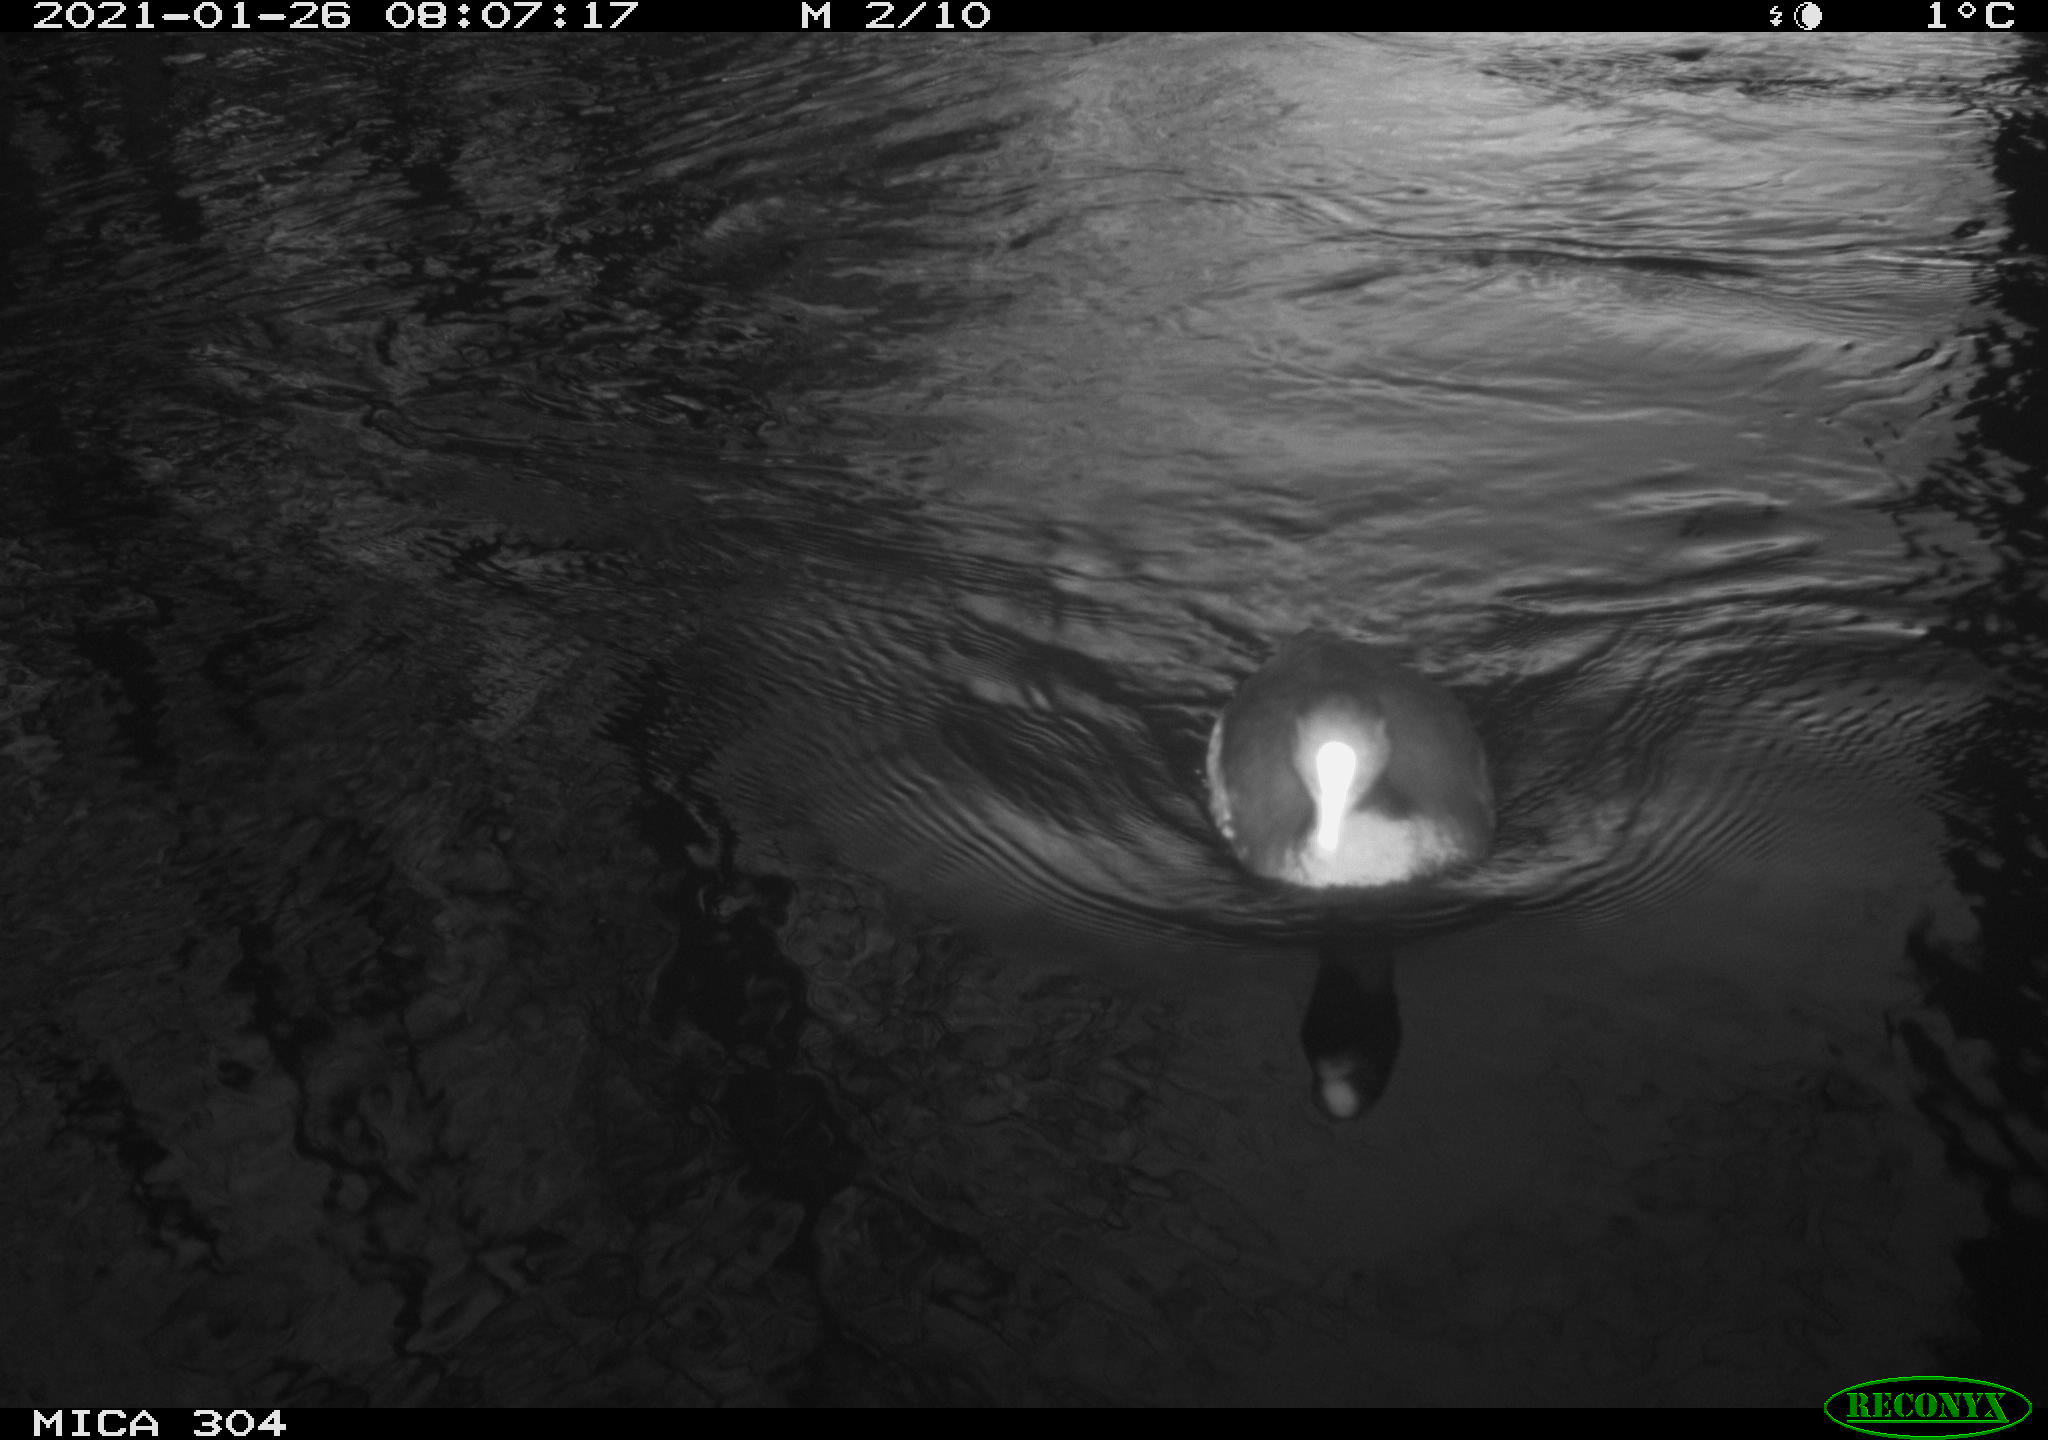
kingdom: Animalia
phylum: Chordata
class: Aves
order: Gruiformes
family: Rallidae
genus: Fulica
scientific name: Fulica atra
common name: Eurasian coot
